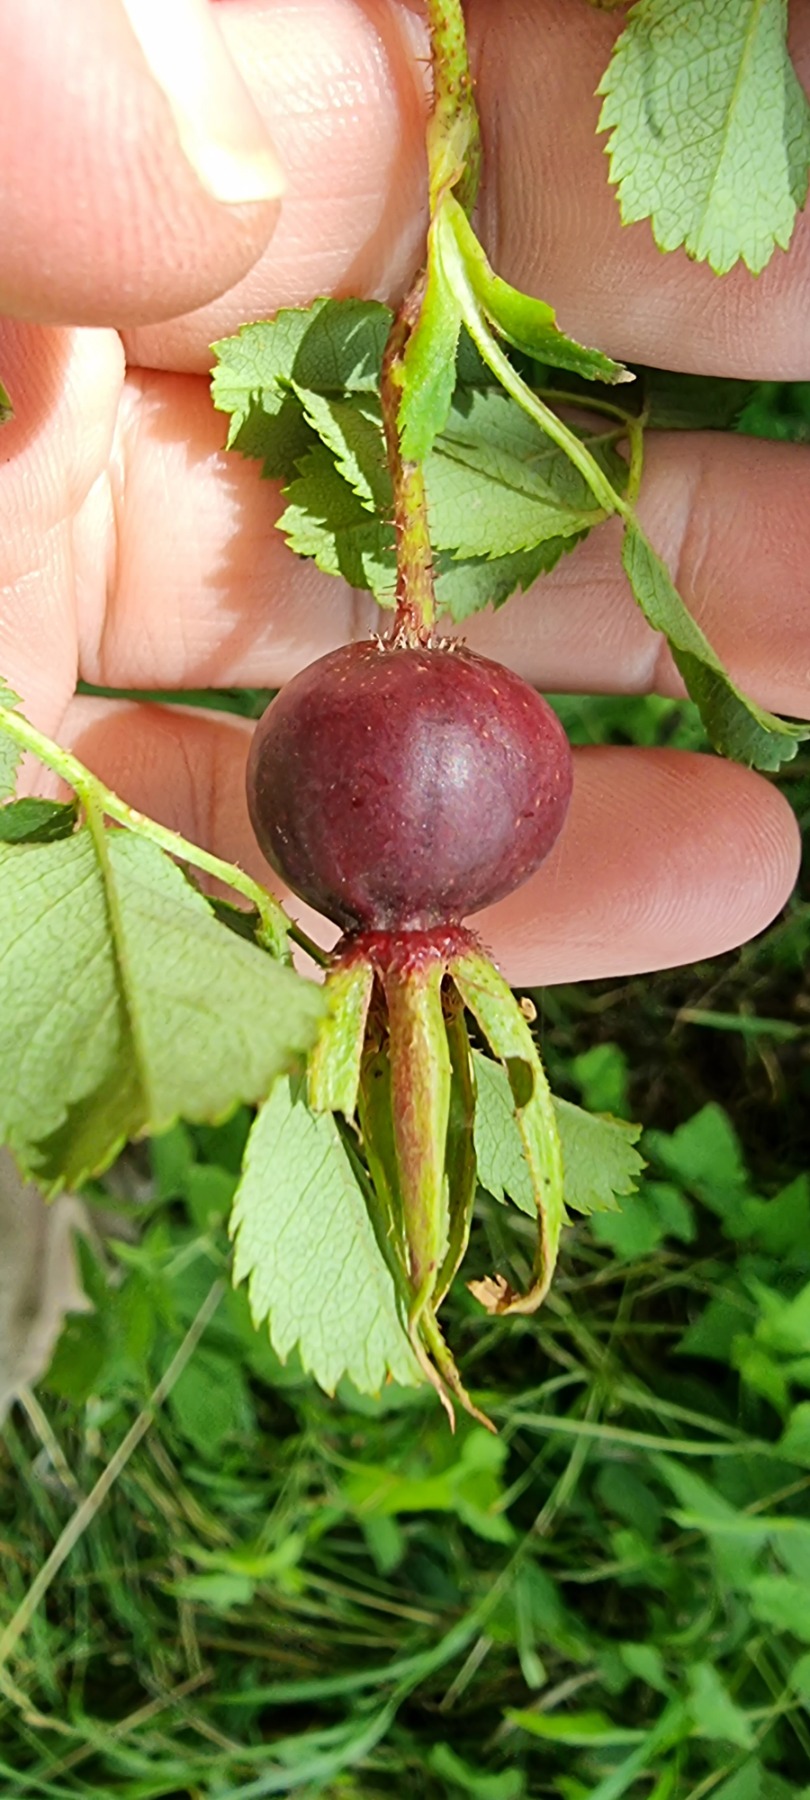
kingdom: Plantae
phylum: Tracheophyta
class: Magnoliopsida
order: Rosales
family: Rosaceae
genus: Rosa
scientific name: Rosa spinosissima
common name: Klit-rose
